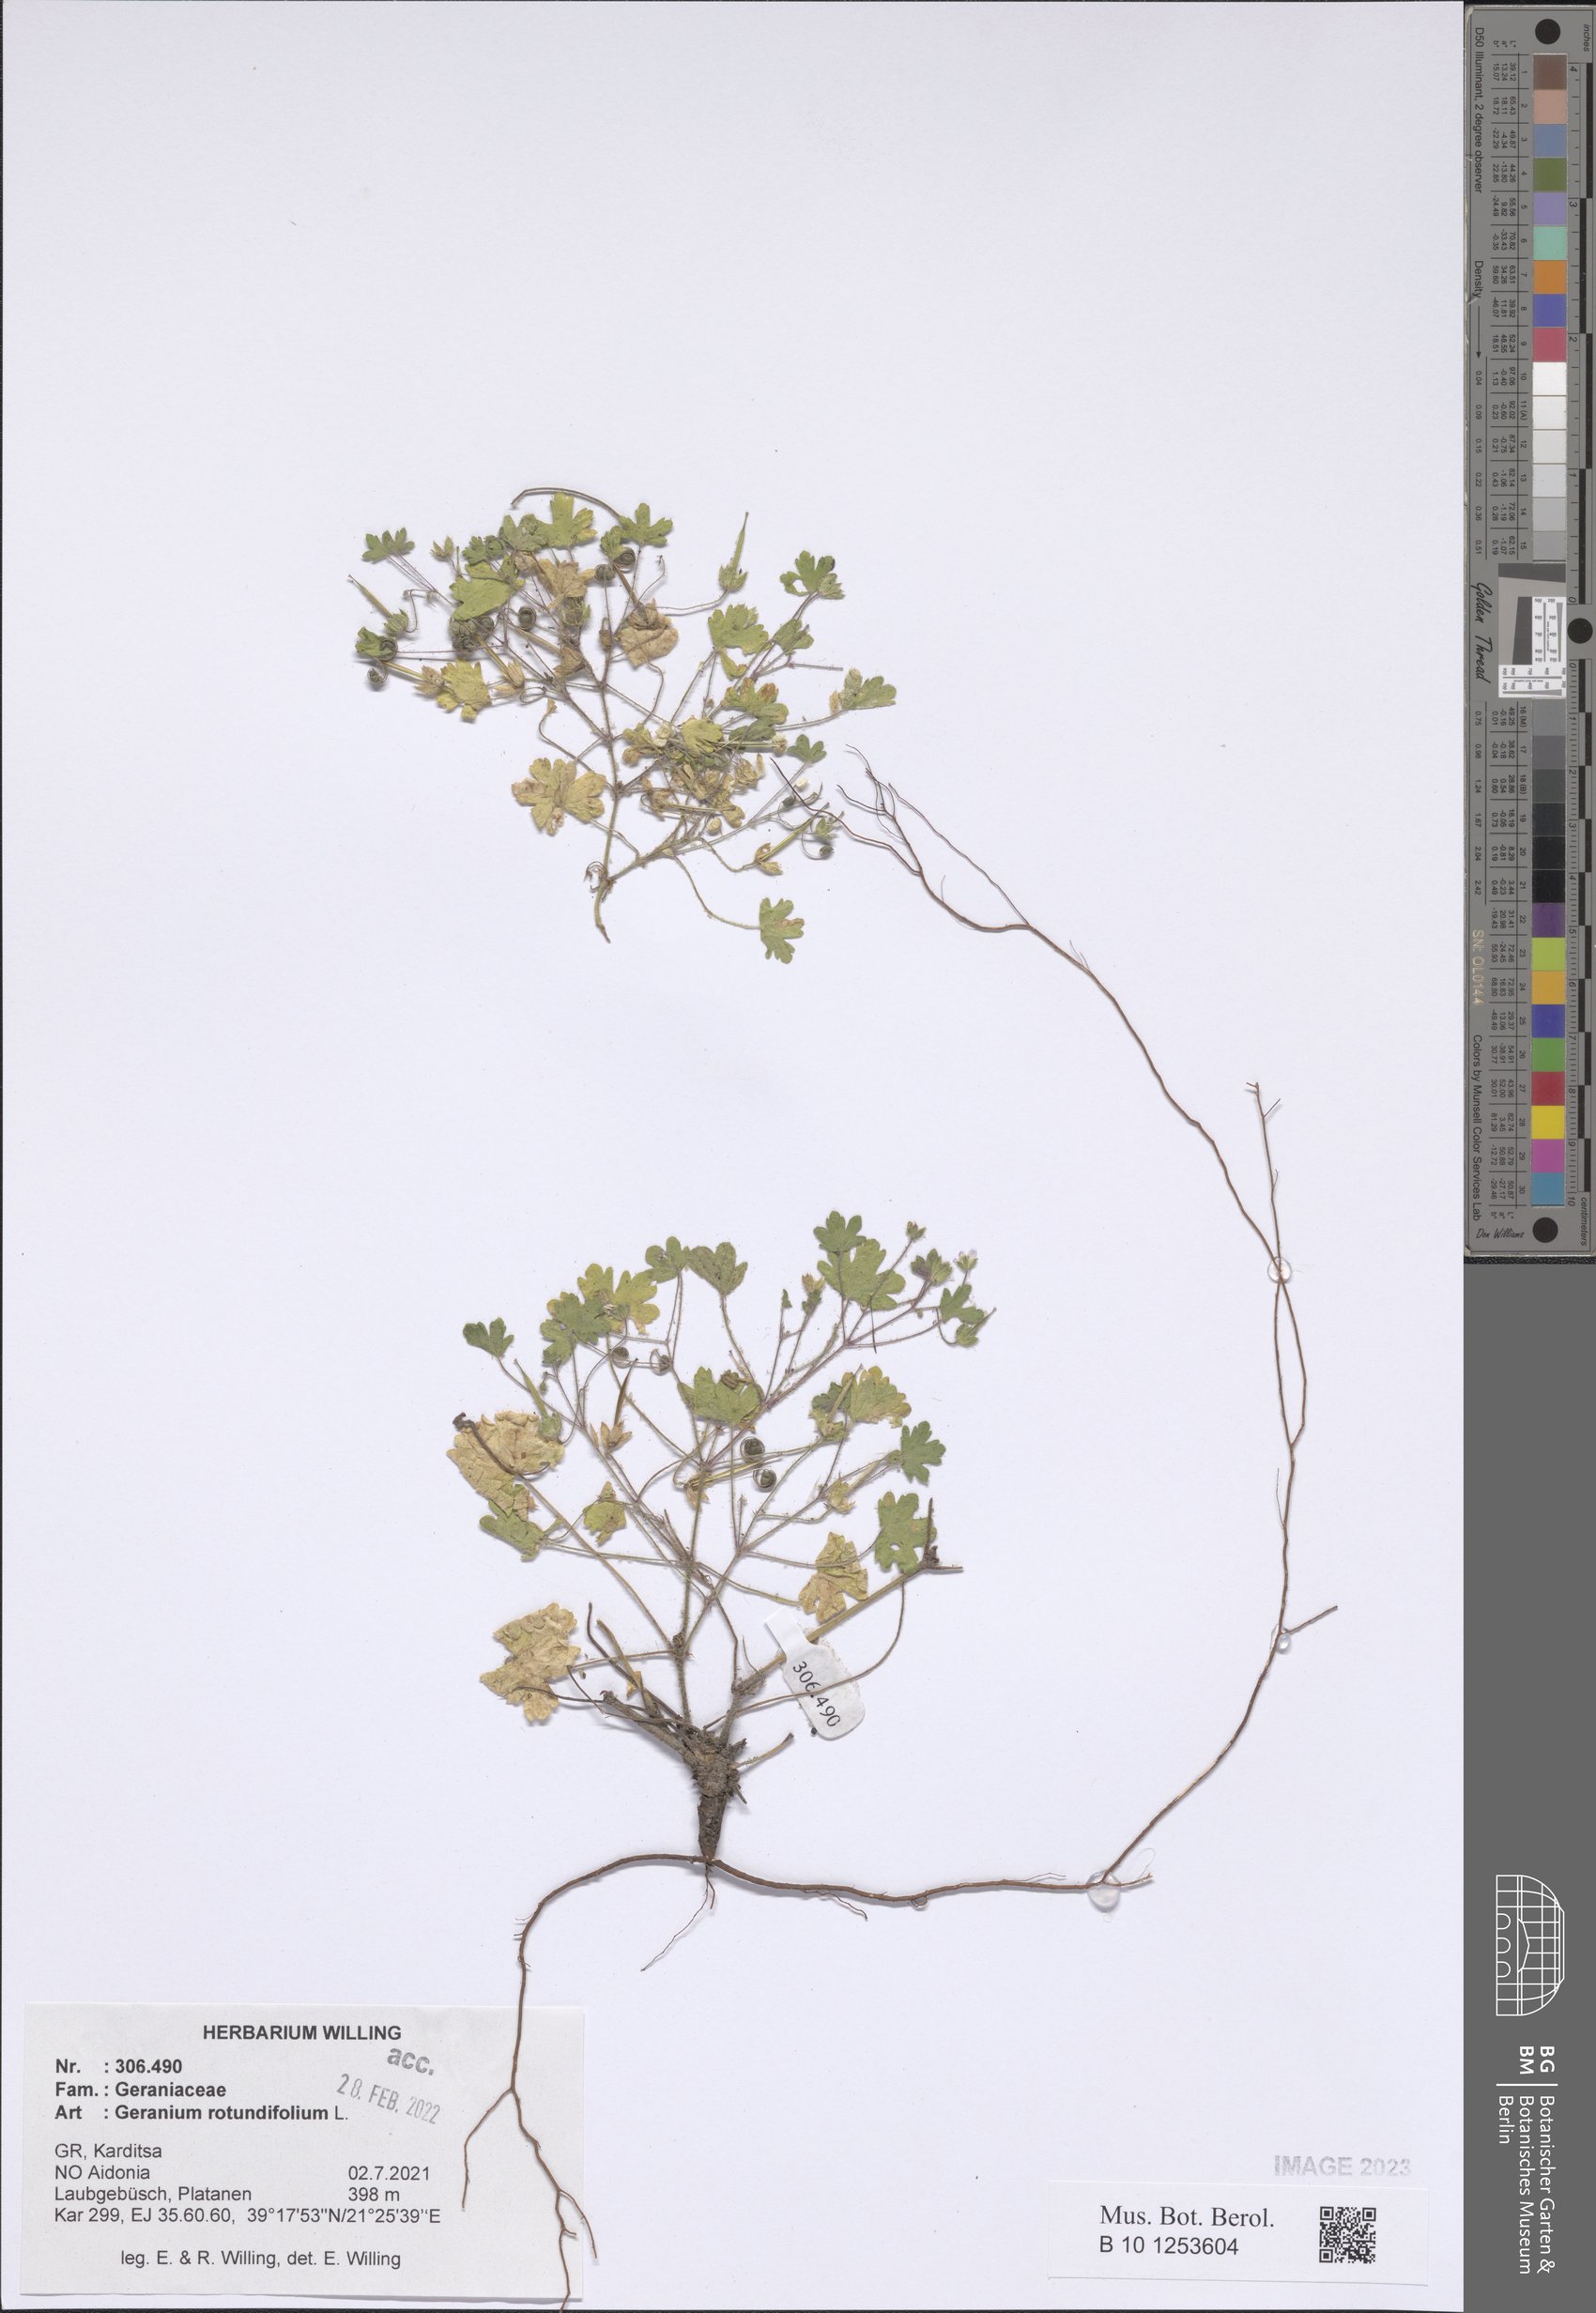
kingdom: Plantae
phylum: Tracheophyta
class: Magnoliopsida
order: Geraniales
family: Geraniaceae
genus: Geranium
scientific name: Geranium rotundifolium
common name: Round-leaved crane's-bill
